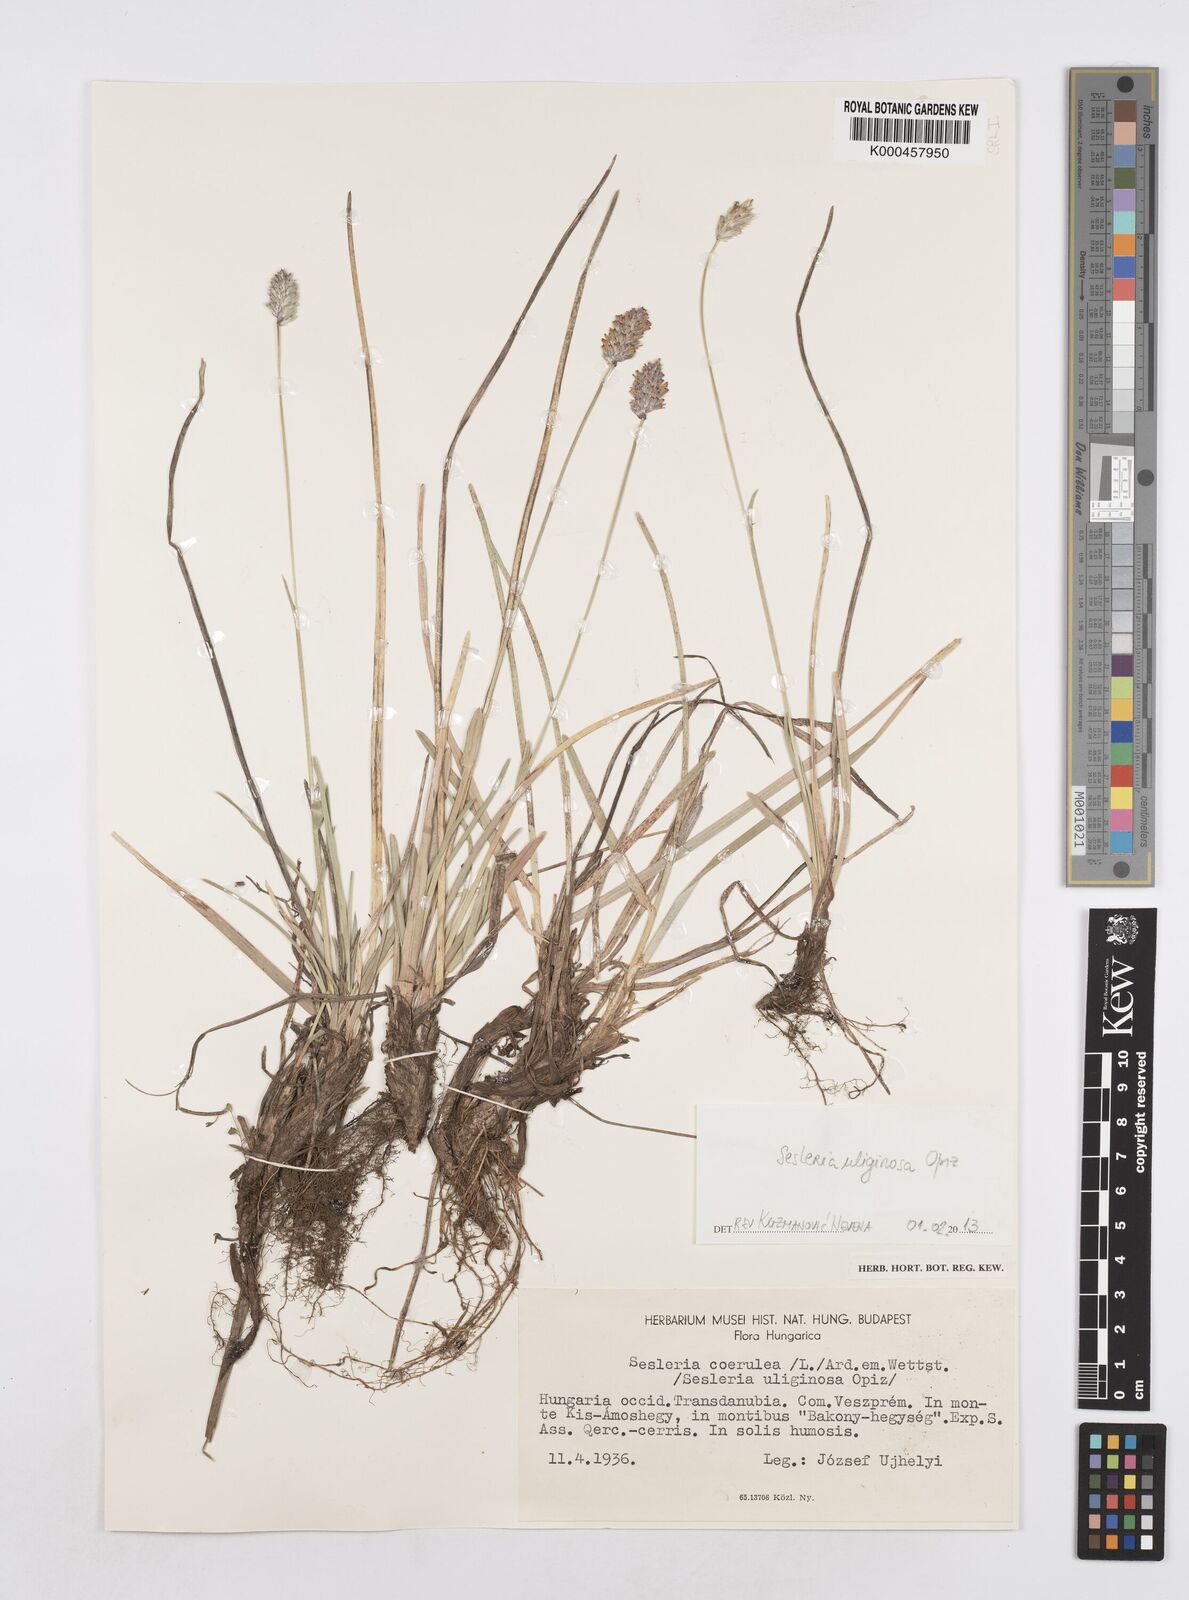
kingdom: Plantae
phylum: Tracheophyta
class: Liliopsida
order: Poales
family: Poaceae
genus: Sesleria
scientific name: Sesleria coerulans
